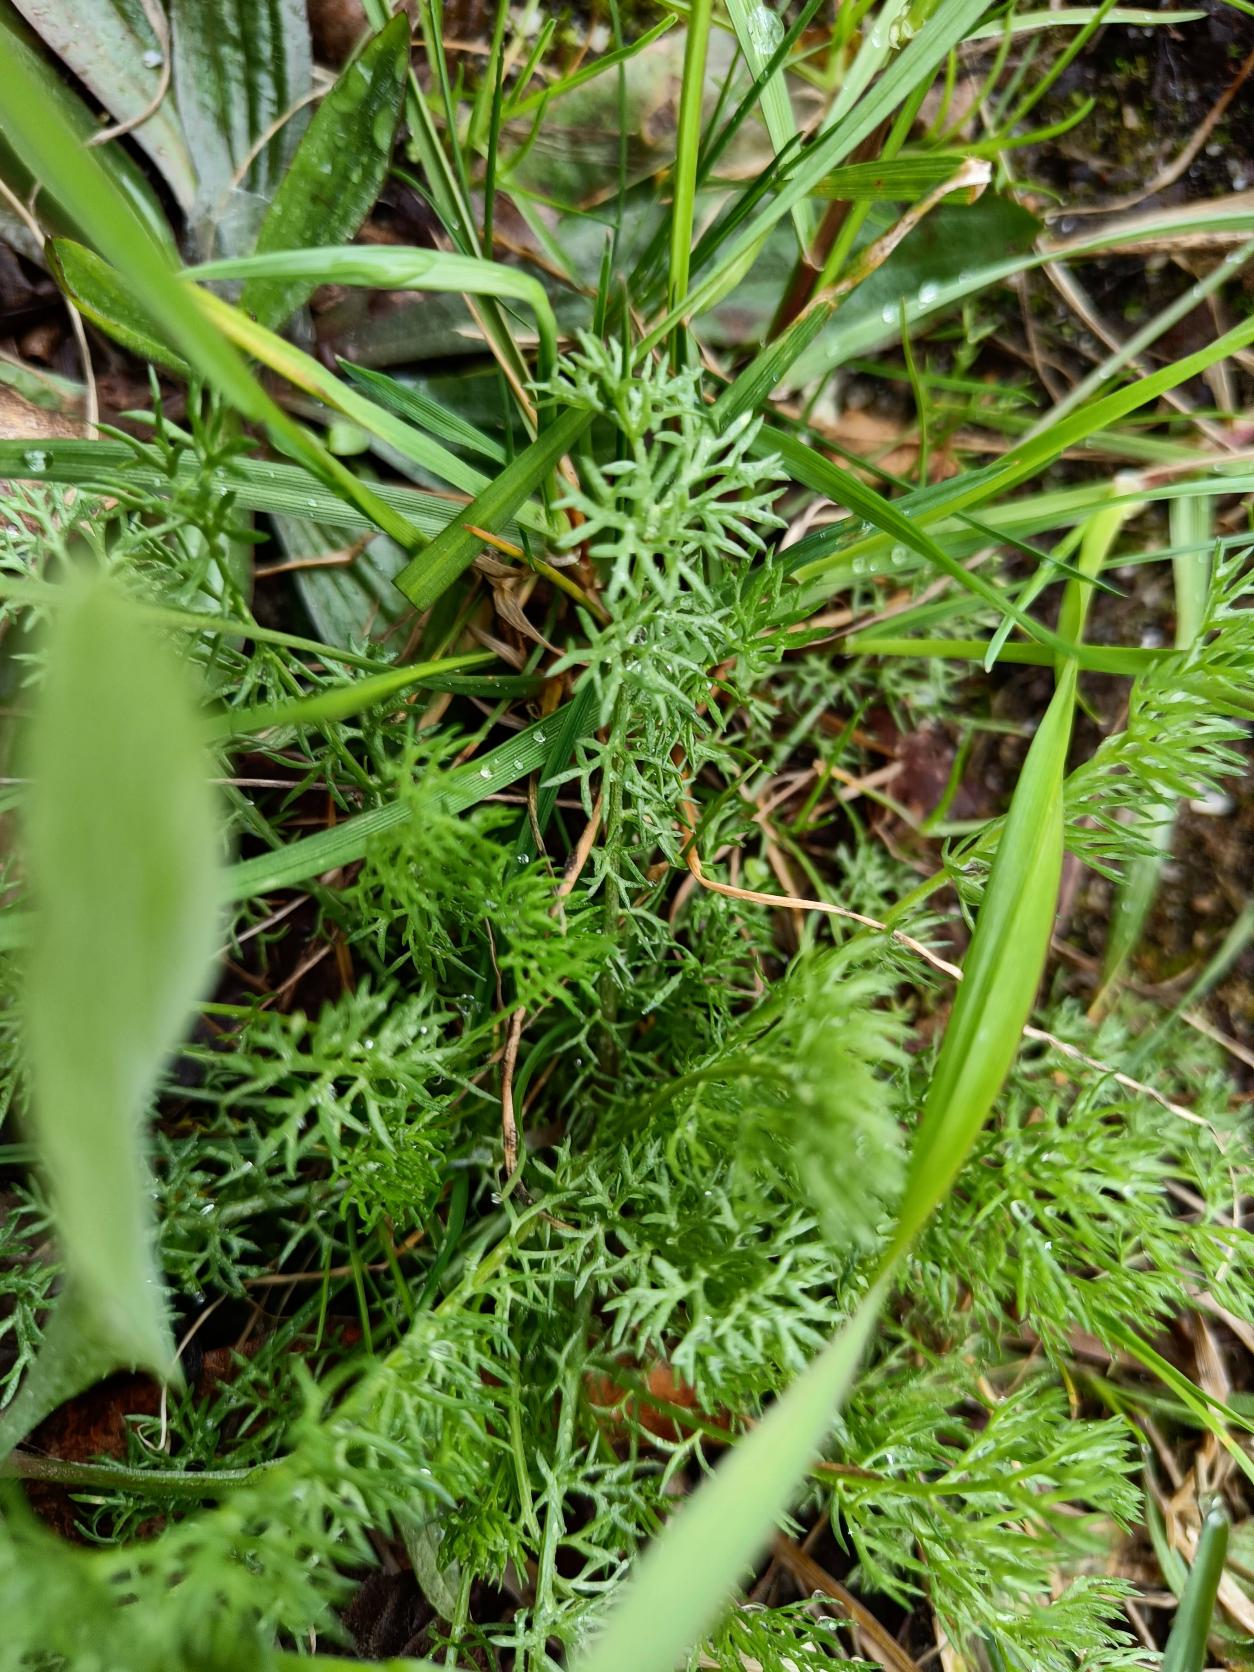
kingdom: Plantae
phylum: Tracheophyta
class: Magnoliopsida
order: Asterales
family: Asteraceae
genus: Tripleurospermum
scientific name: Tripleurospermum inodorum
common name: Lugtløs kamille
